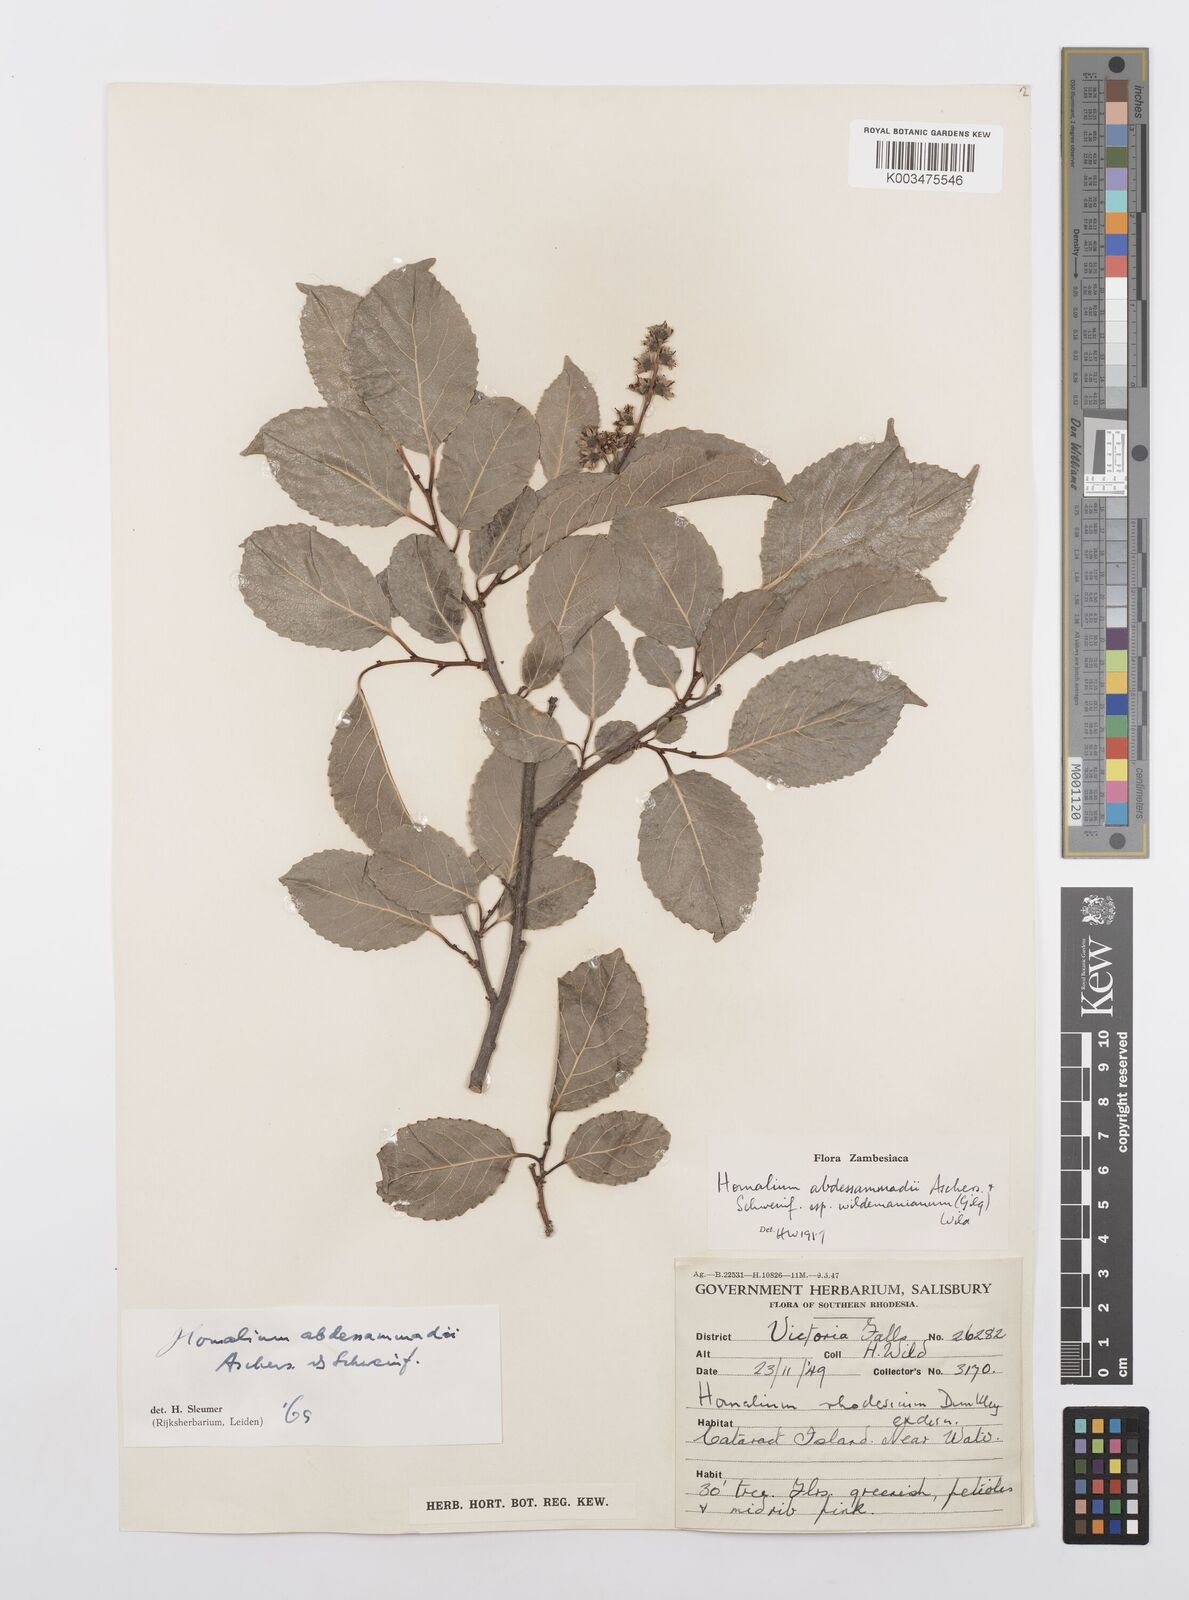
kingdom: Plantae
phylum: Tracheophyta
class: Magnoliopsida
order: Malpighiales
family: Salicaceae
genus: Homalium
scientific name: Homalium abdessammadii
